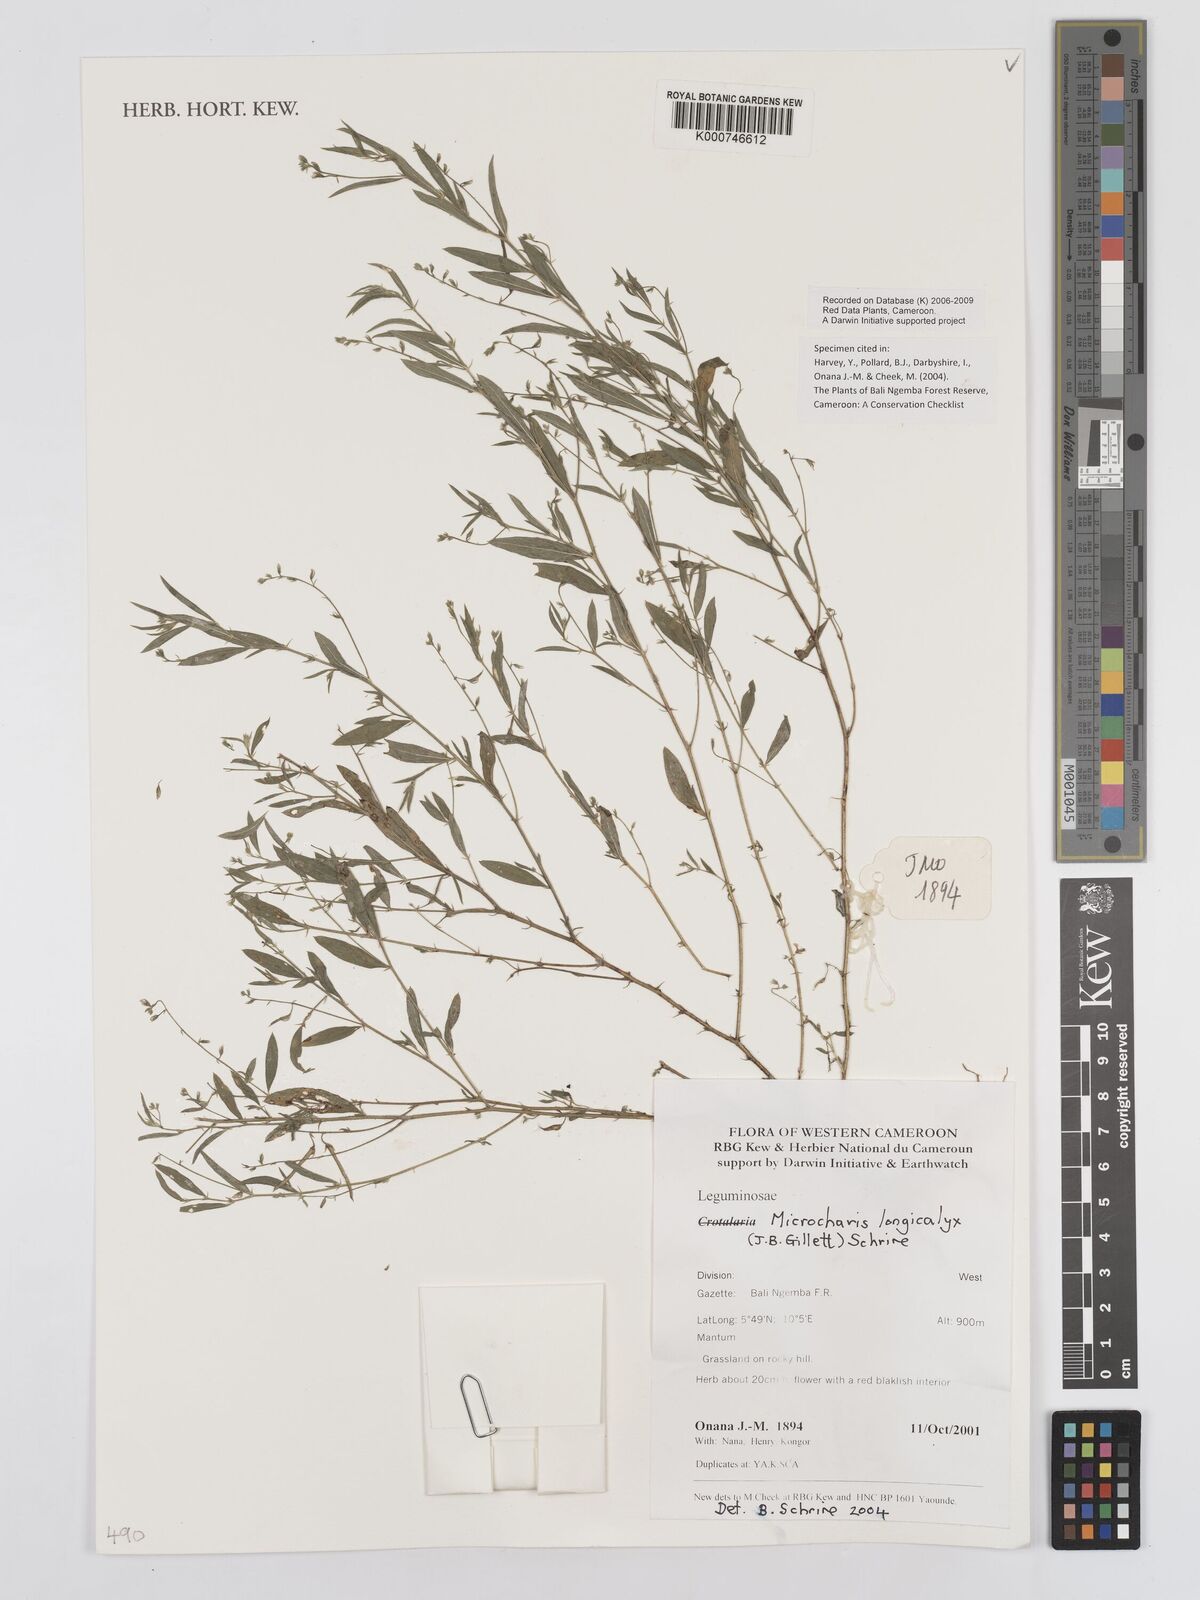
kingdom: Plantae
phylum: Tracheophyta
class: Magnoliopsida
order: Fabales
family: Fabaceae
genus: Microcharis
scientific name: Microcharis longicalyx
